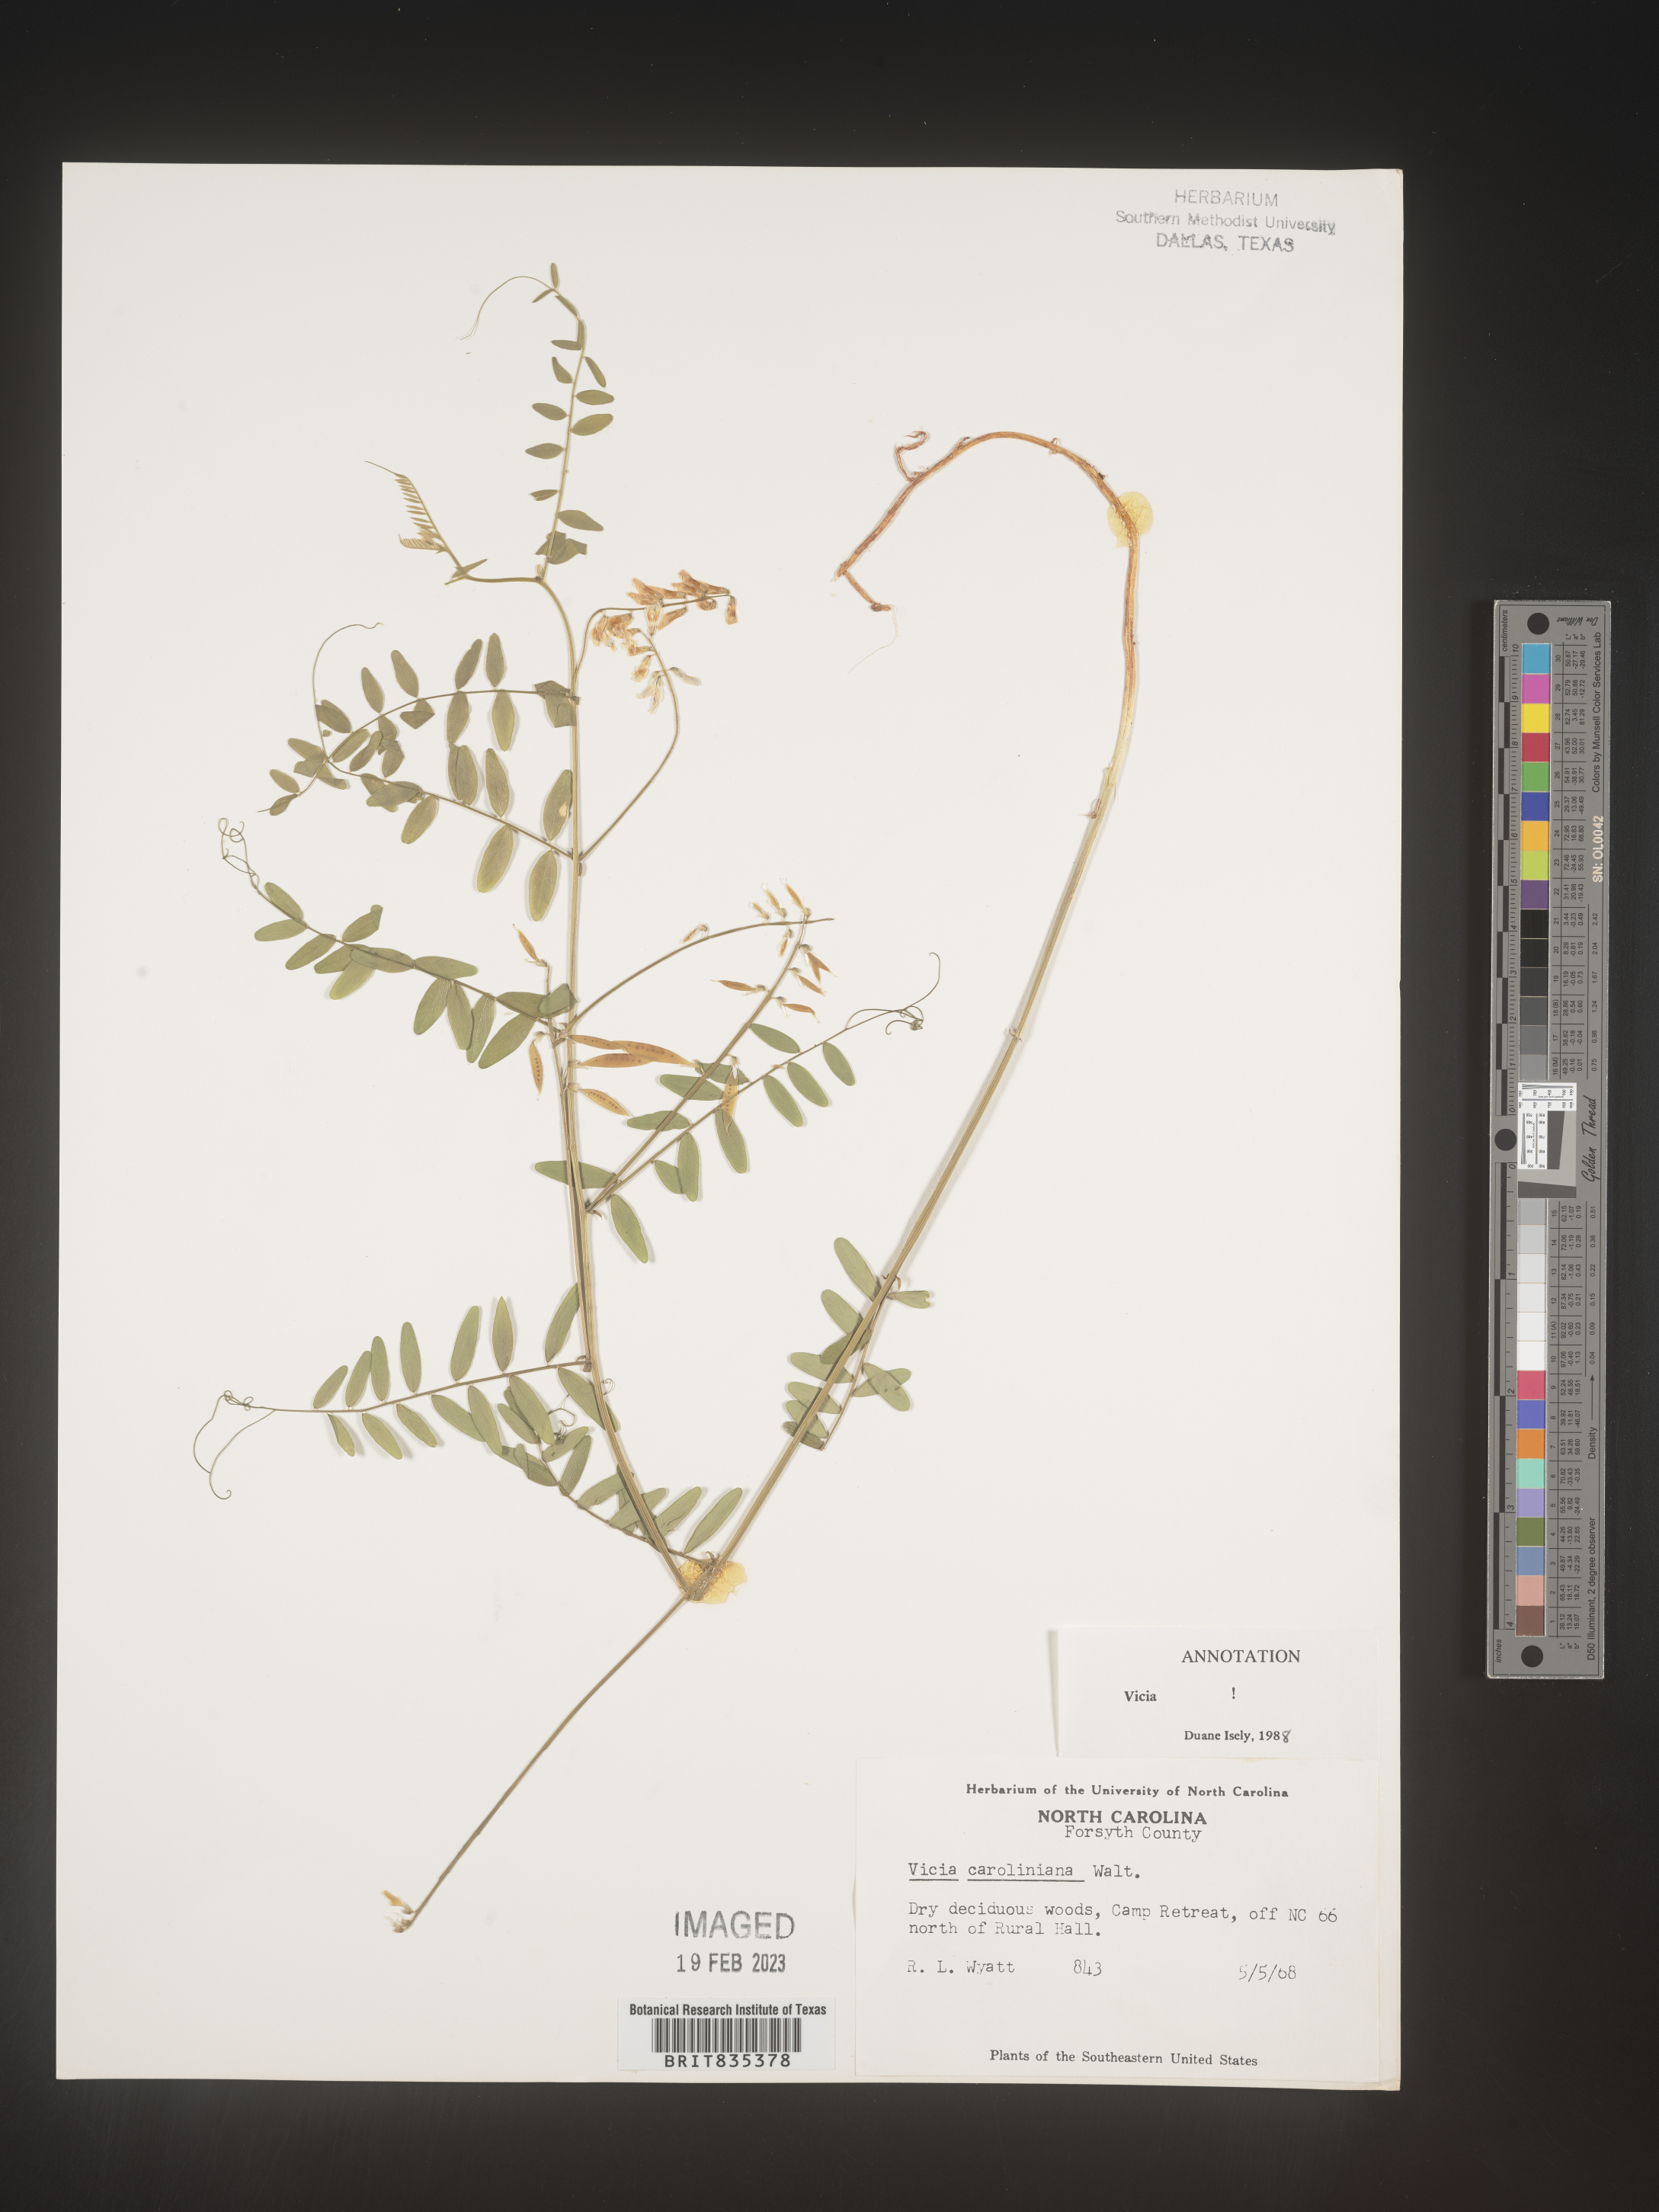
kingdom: Plantae
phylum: Tracheophyta
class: Magnoliopsida
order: Fabales
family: Fabaceae
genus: Vicia
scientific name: Vicia caroliniana
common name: Carolina vetch
